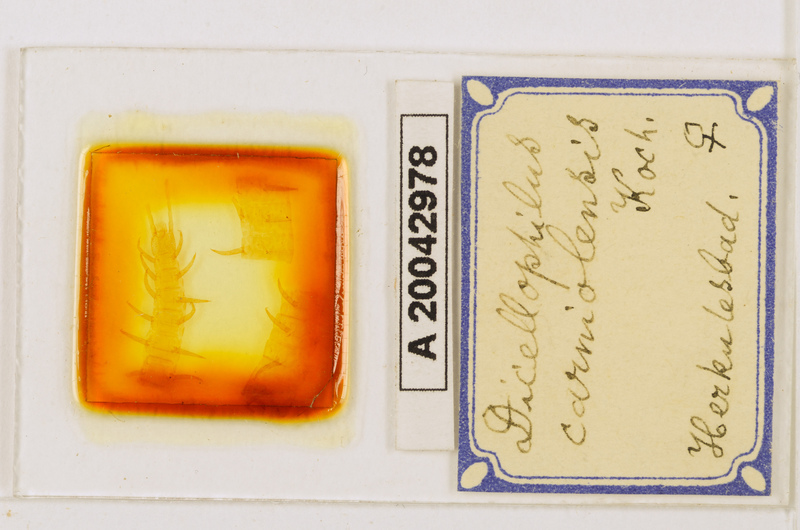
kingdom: Animalia
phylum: Arthropoda
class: Chilopoda
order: Geophilomorpha
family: Mecistocephalidae
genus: Dicellophilus
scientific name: Dicellophilus carniolensis
